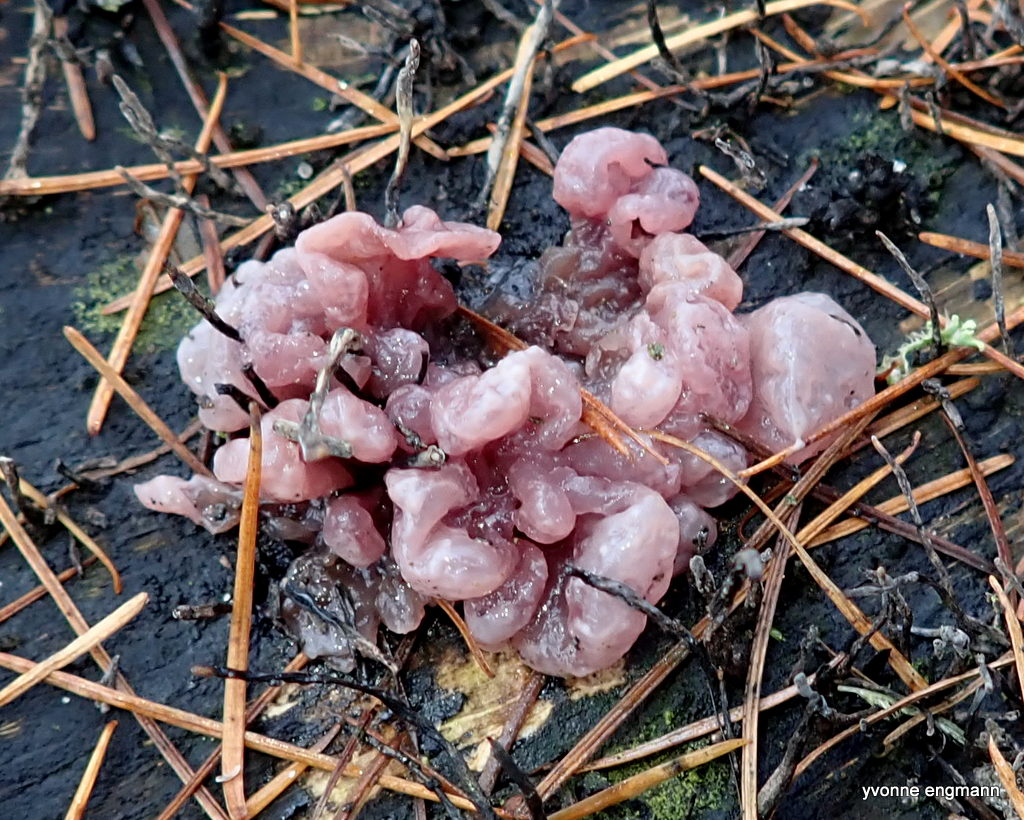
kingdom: Fungi
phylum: Ascomycota
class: Leotiomycetes
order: Helotiales
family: Gelatinodiscaceae
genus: Ascocoryne
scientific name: Ascocoryne sarcoides
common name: rødlilla sejskive
